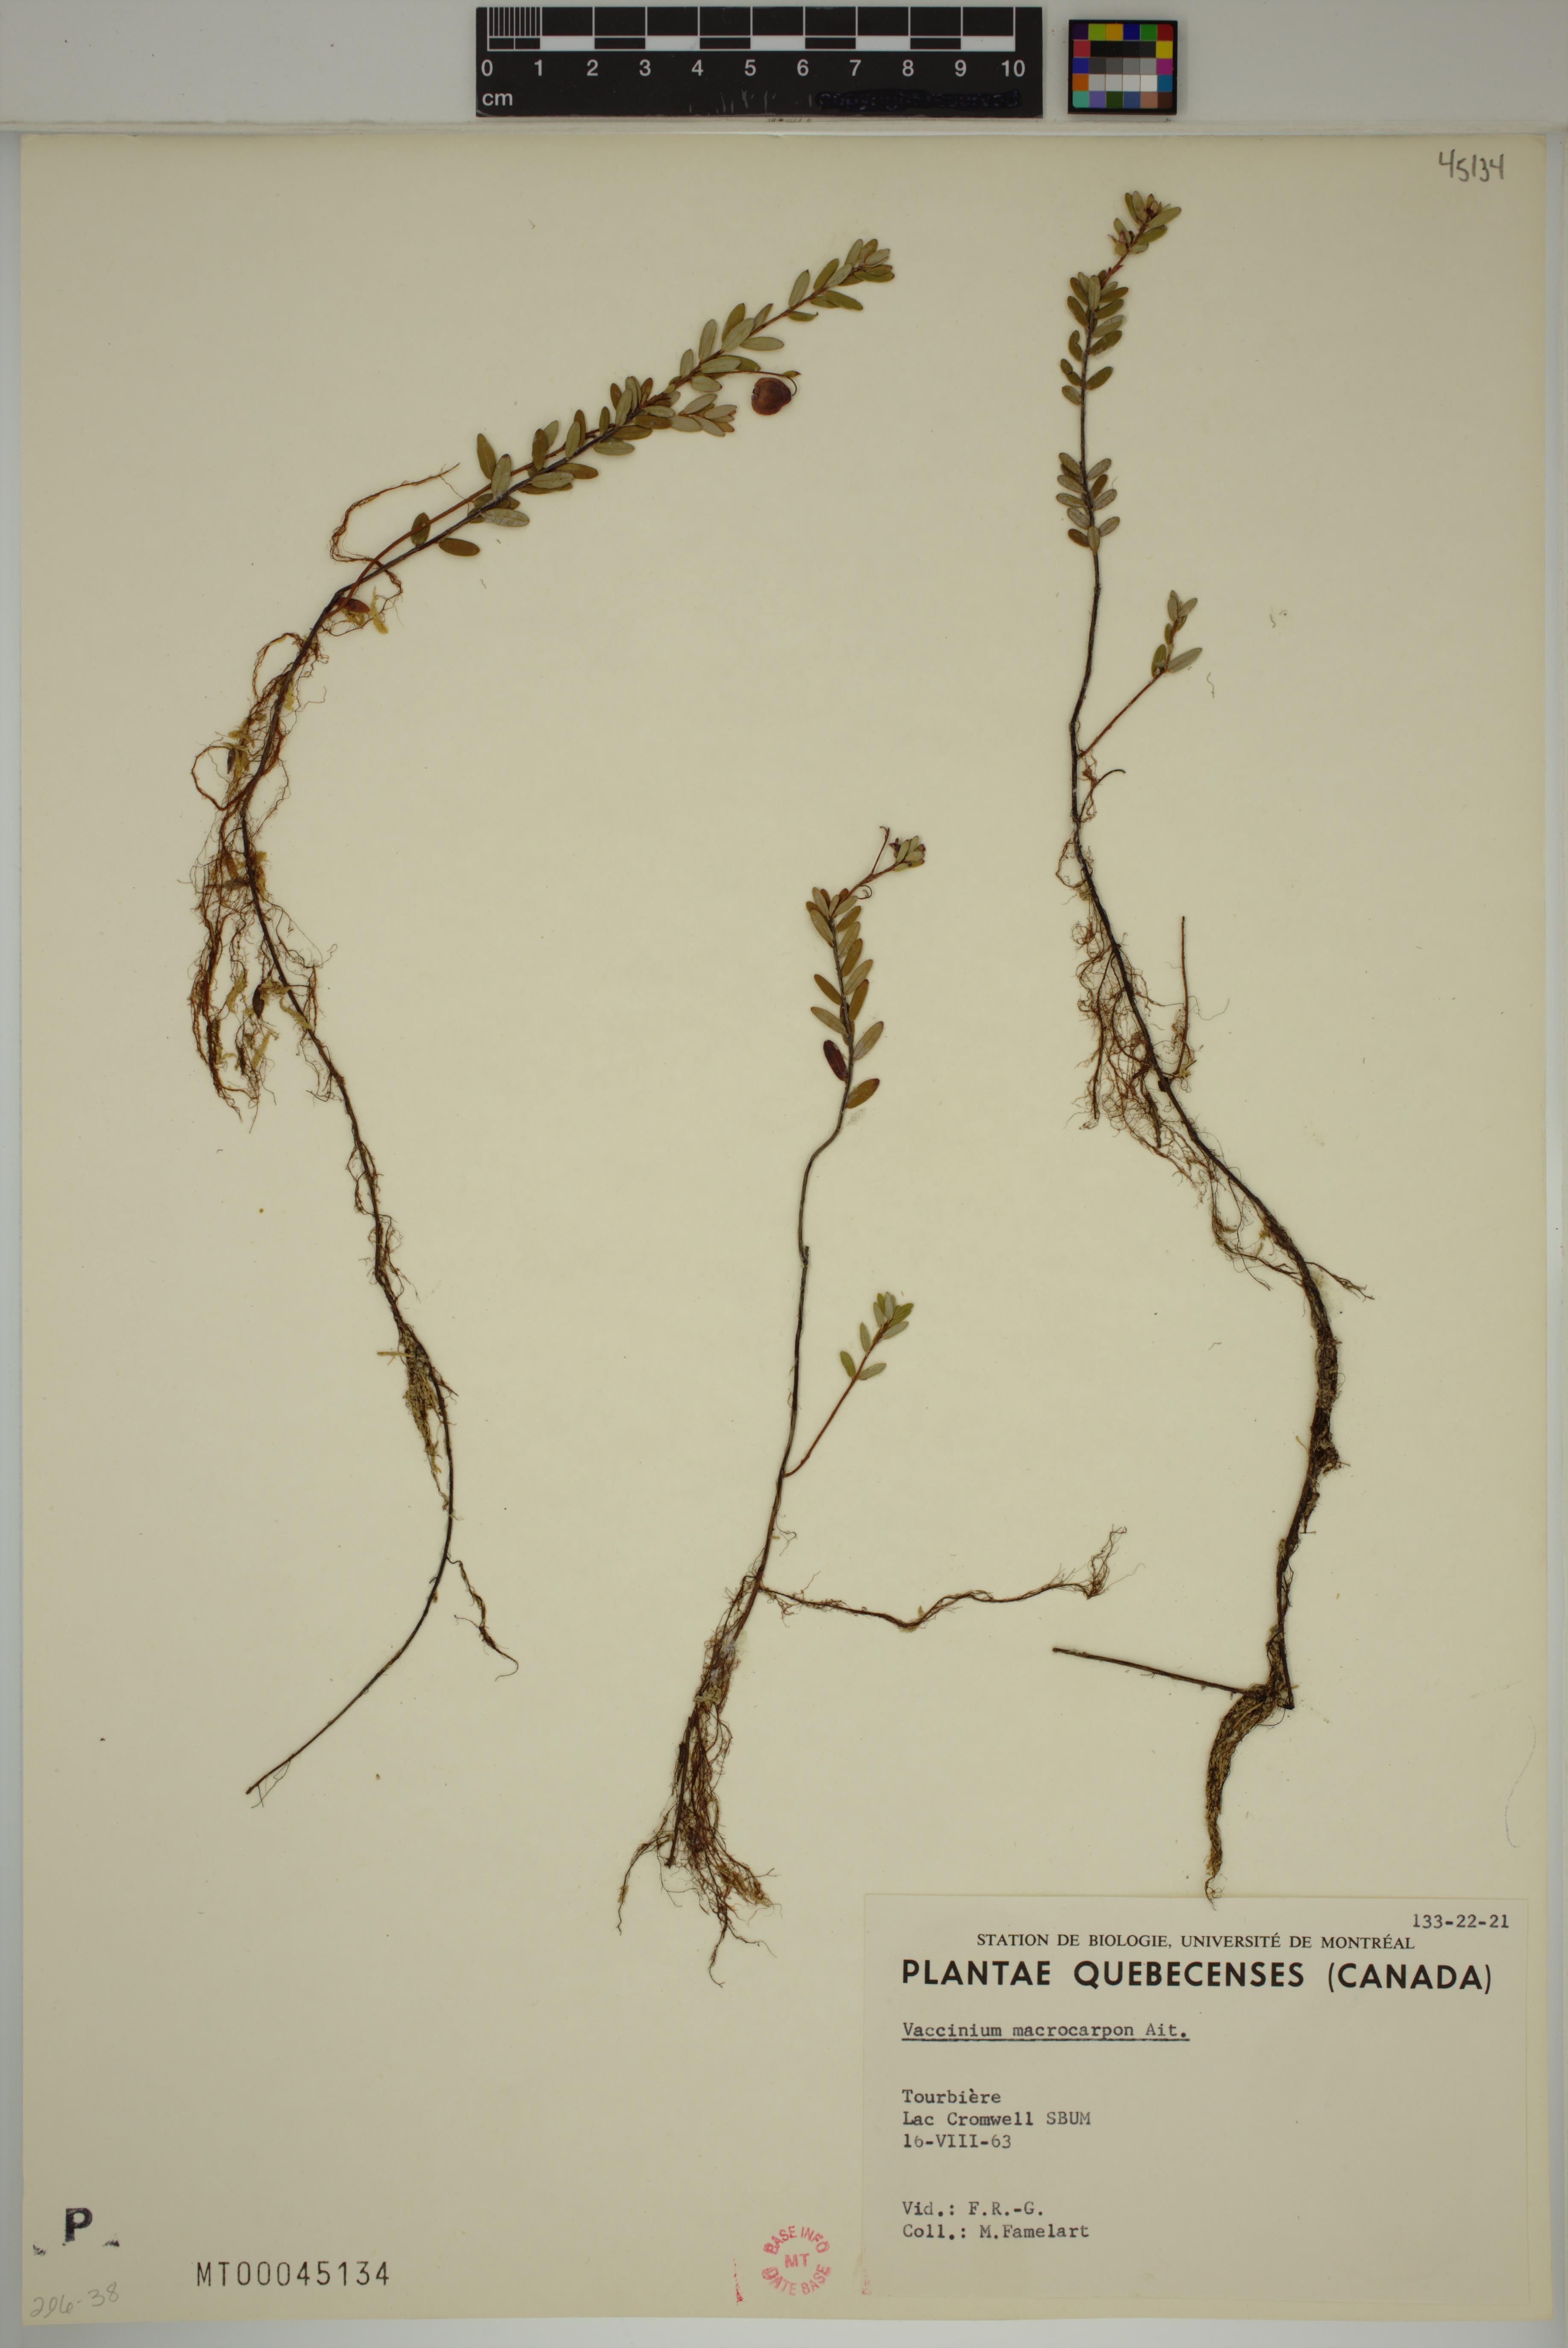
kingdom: Plantae
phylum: Tracheophyta
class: Magnoliopsida
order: Ericales
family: Ericaceae
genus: Vaccinium
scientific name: Vaccinium macrocarpon
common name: American cranberry
